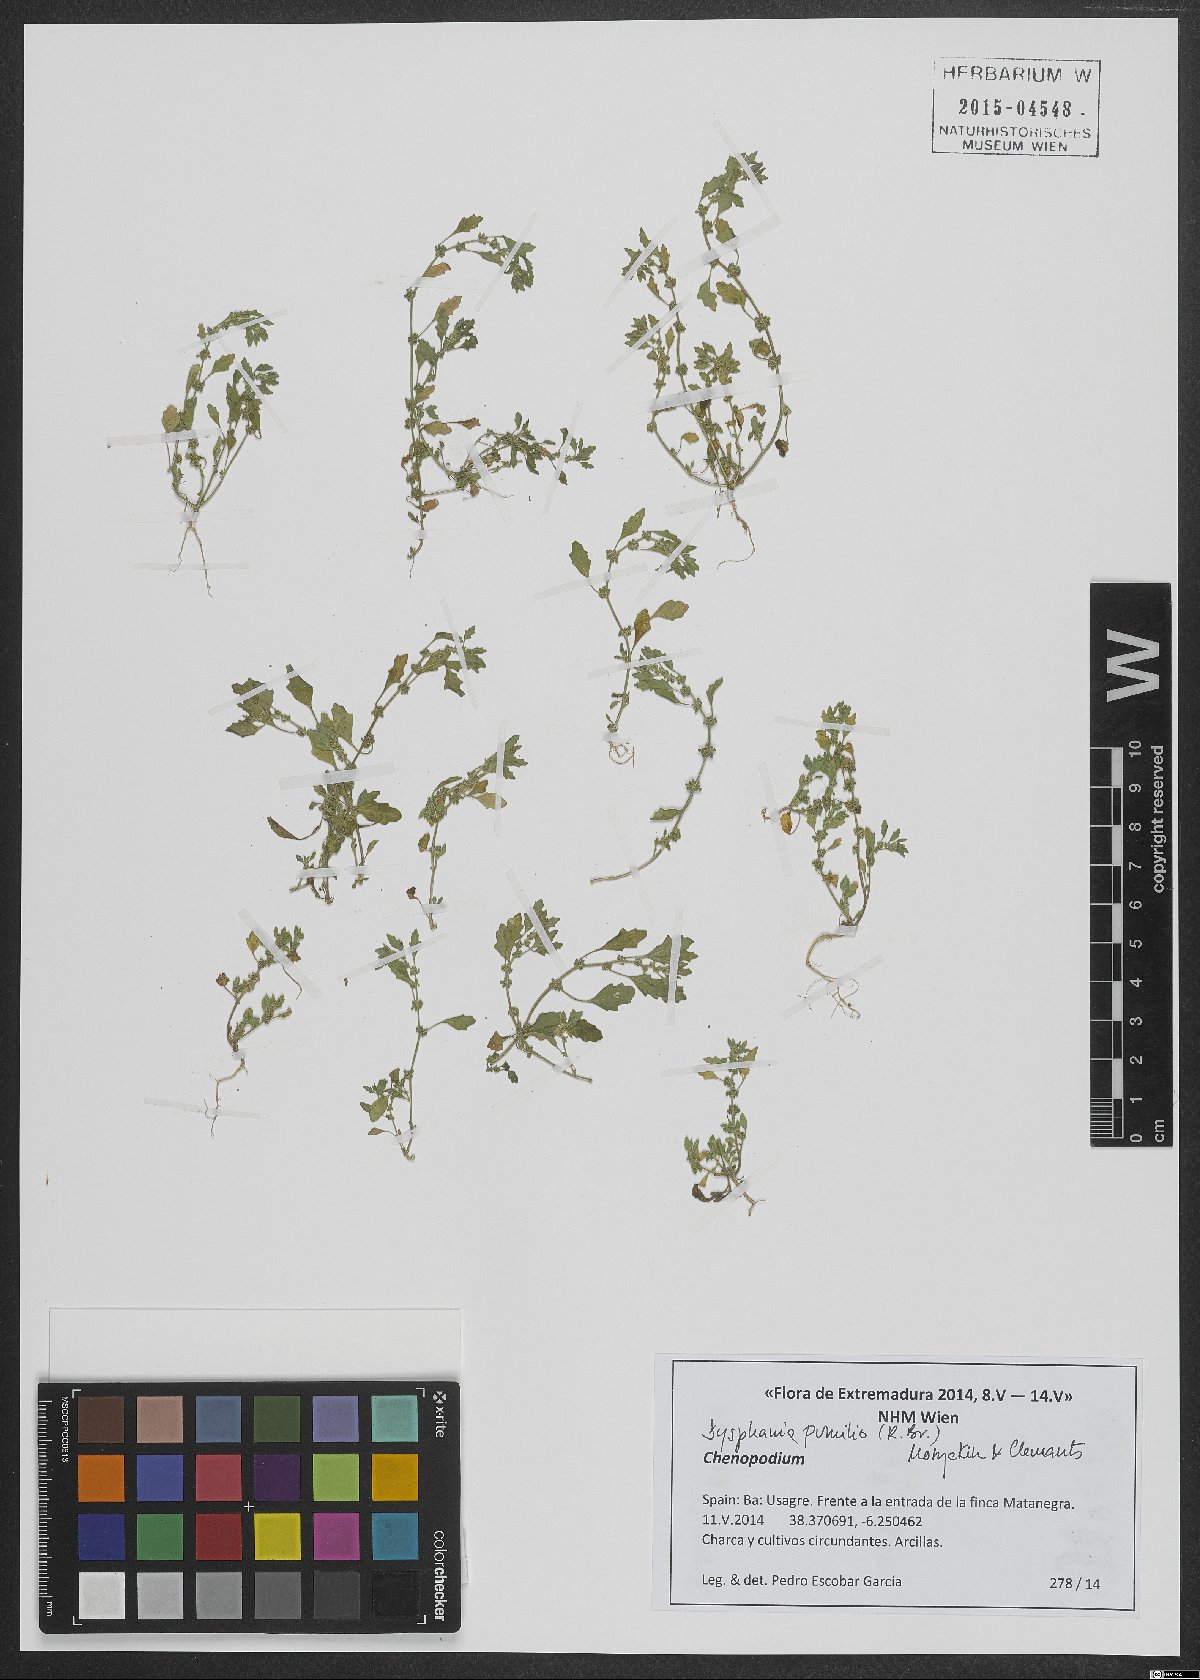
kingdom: Plantae
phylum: Tracheophyta
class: Magnoliopsida
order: Caryophyllales
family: Amaranthaceae
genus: Dysphania
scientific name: Dysphania pumilio
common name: Clammy goosefoot
